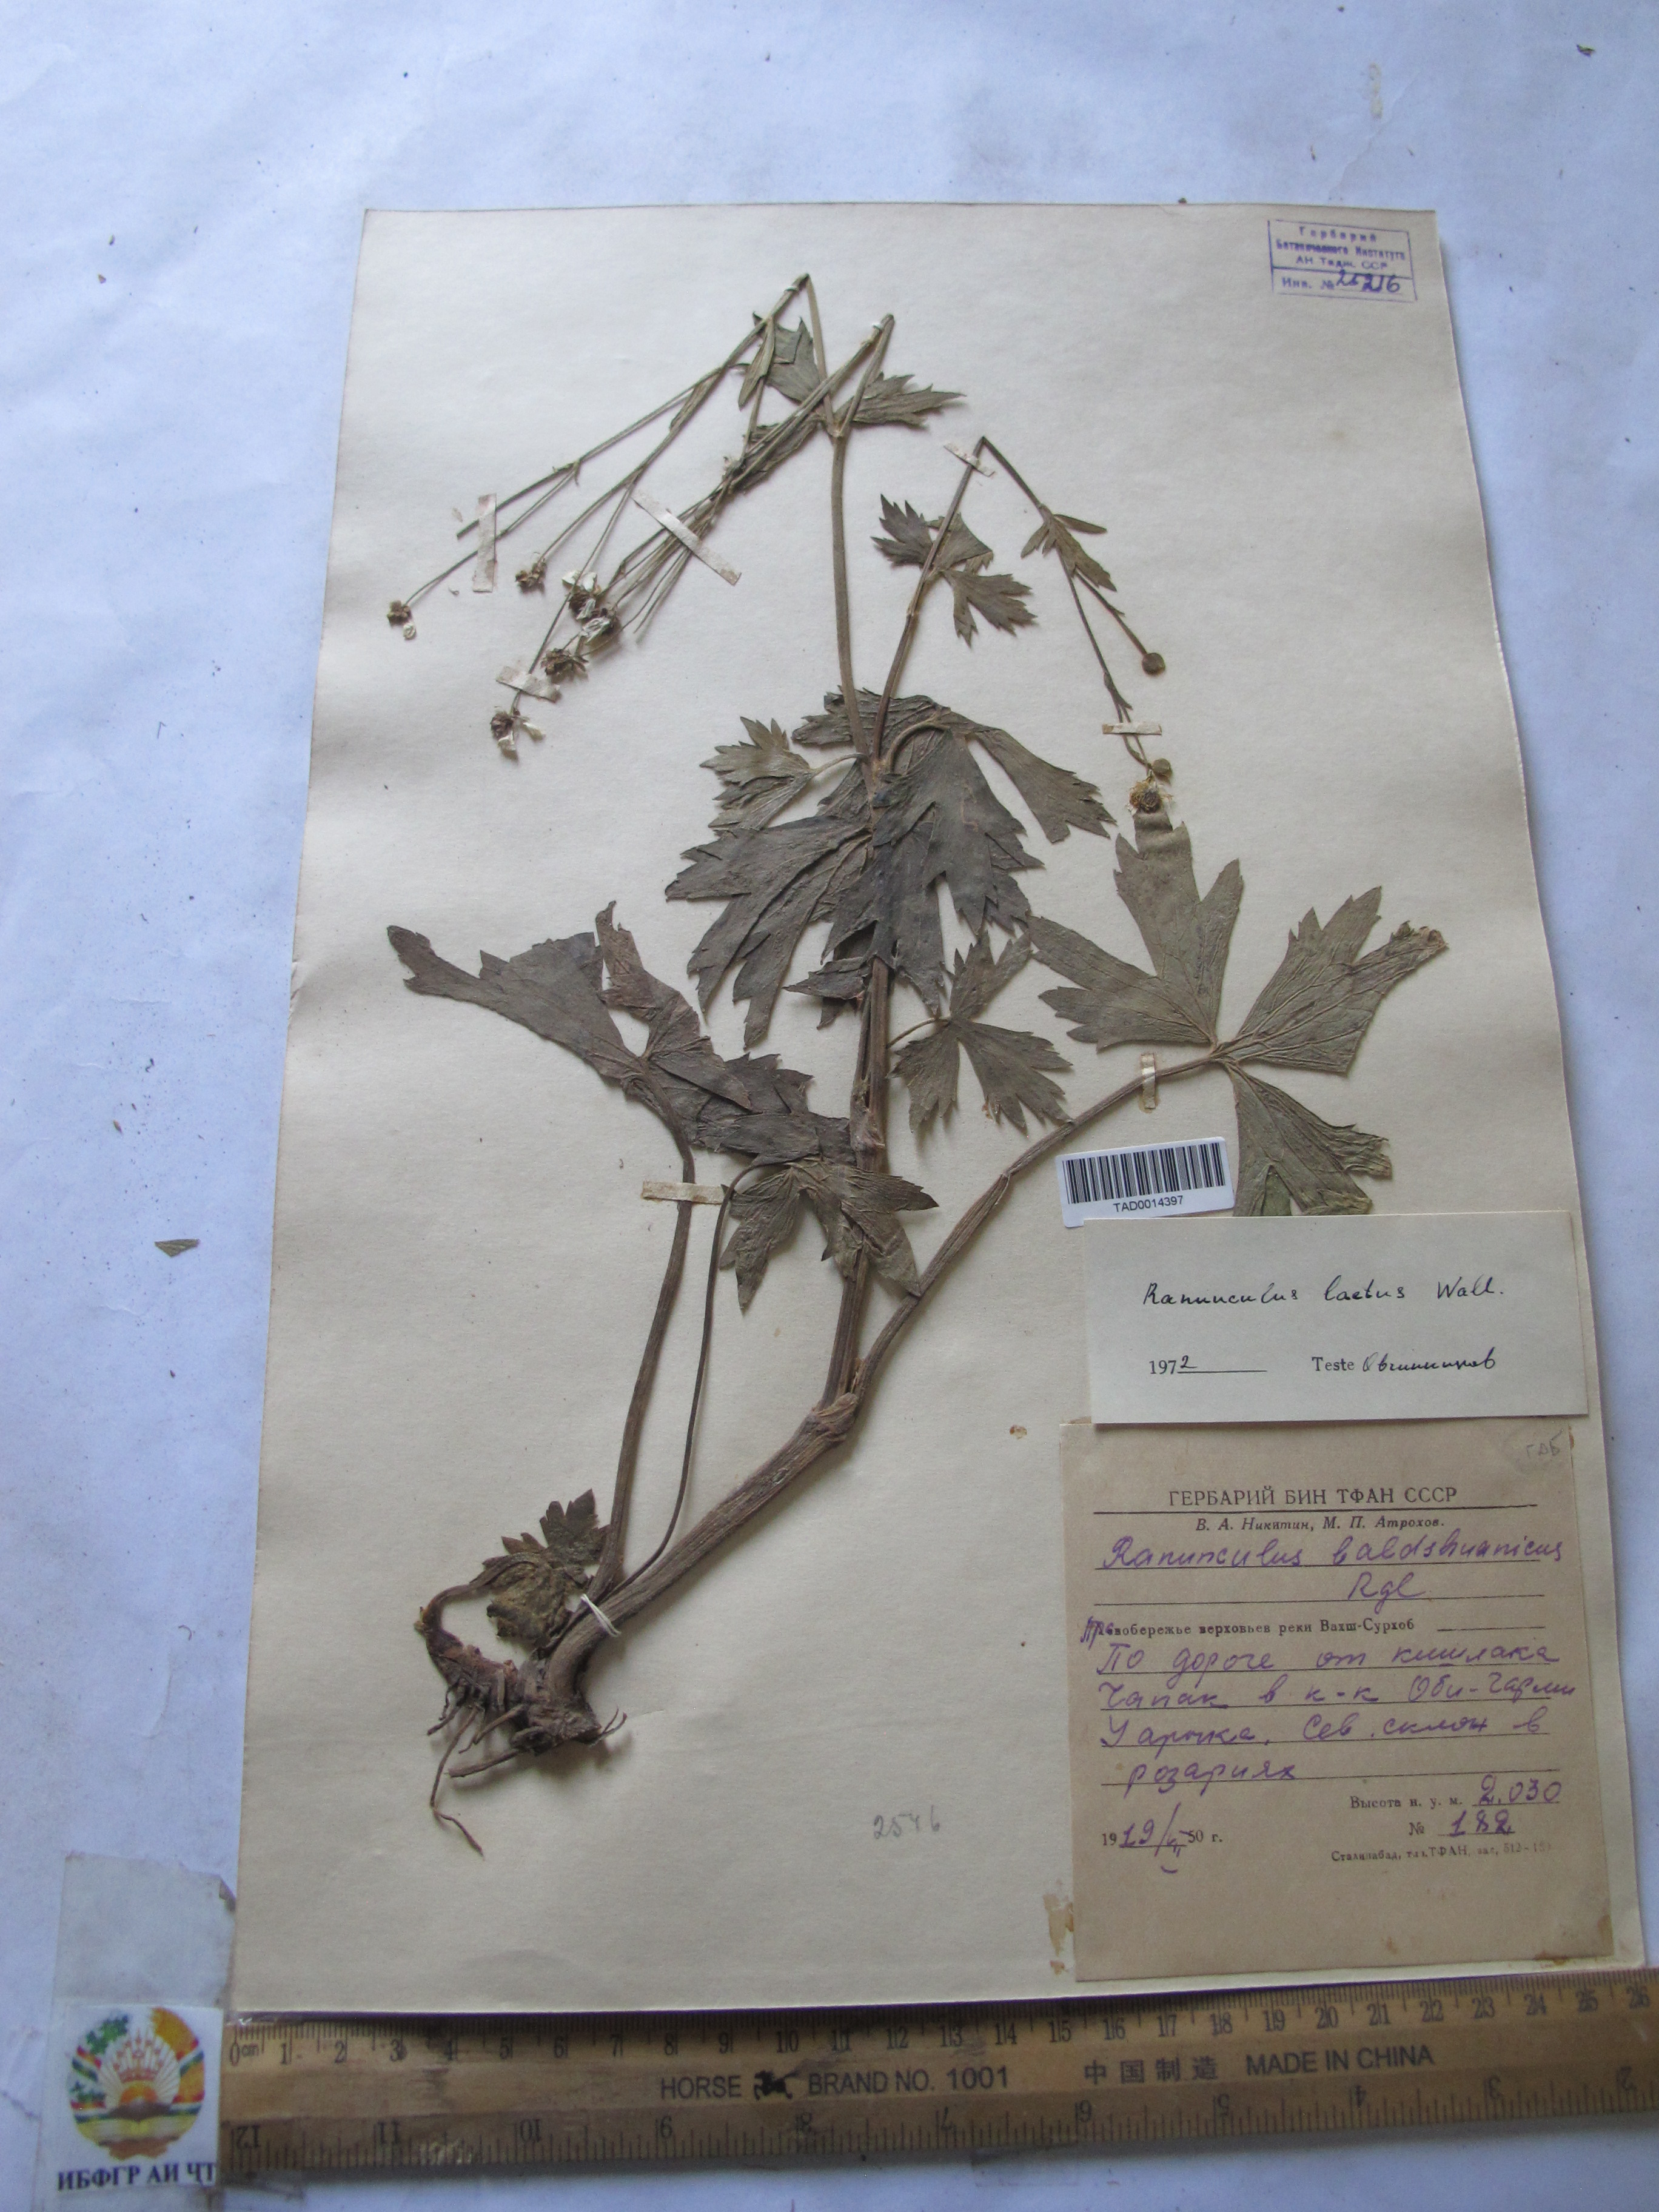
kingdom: Plantae
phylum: Tracheophyta
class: Magnoliopsida
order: Ranunculales
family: Ranunculaceae
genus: Ranunculus
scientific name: Ranunculus distans
